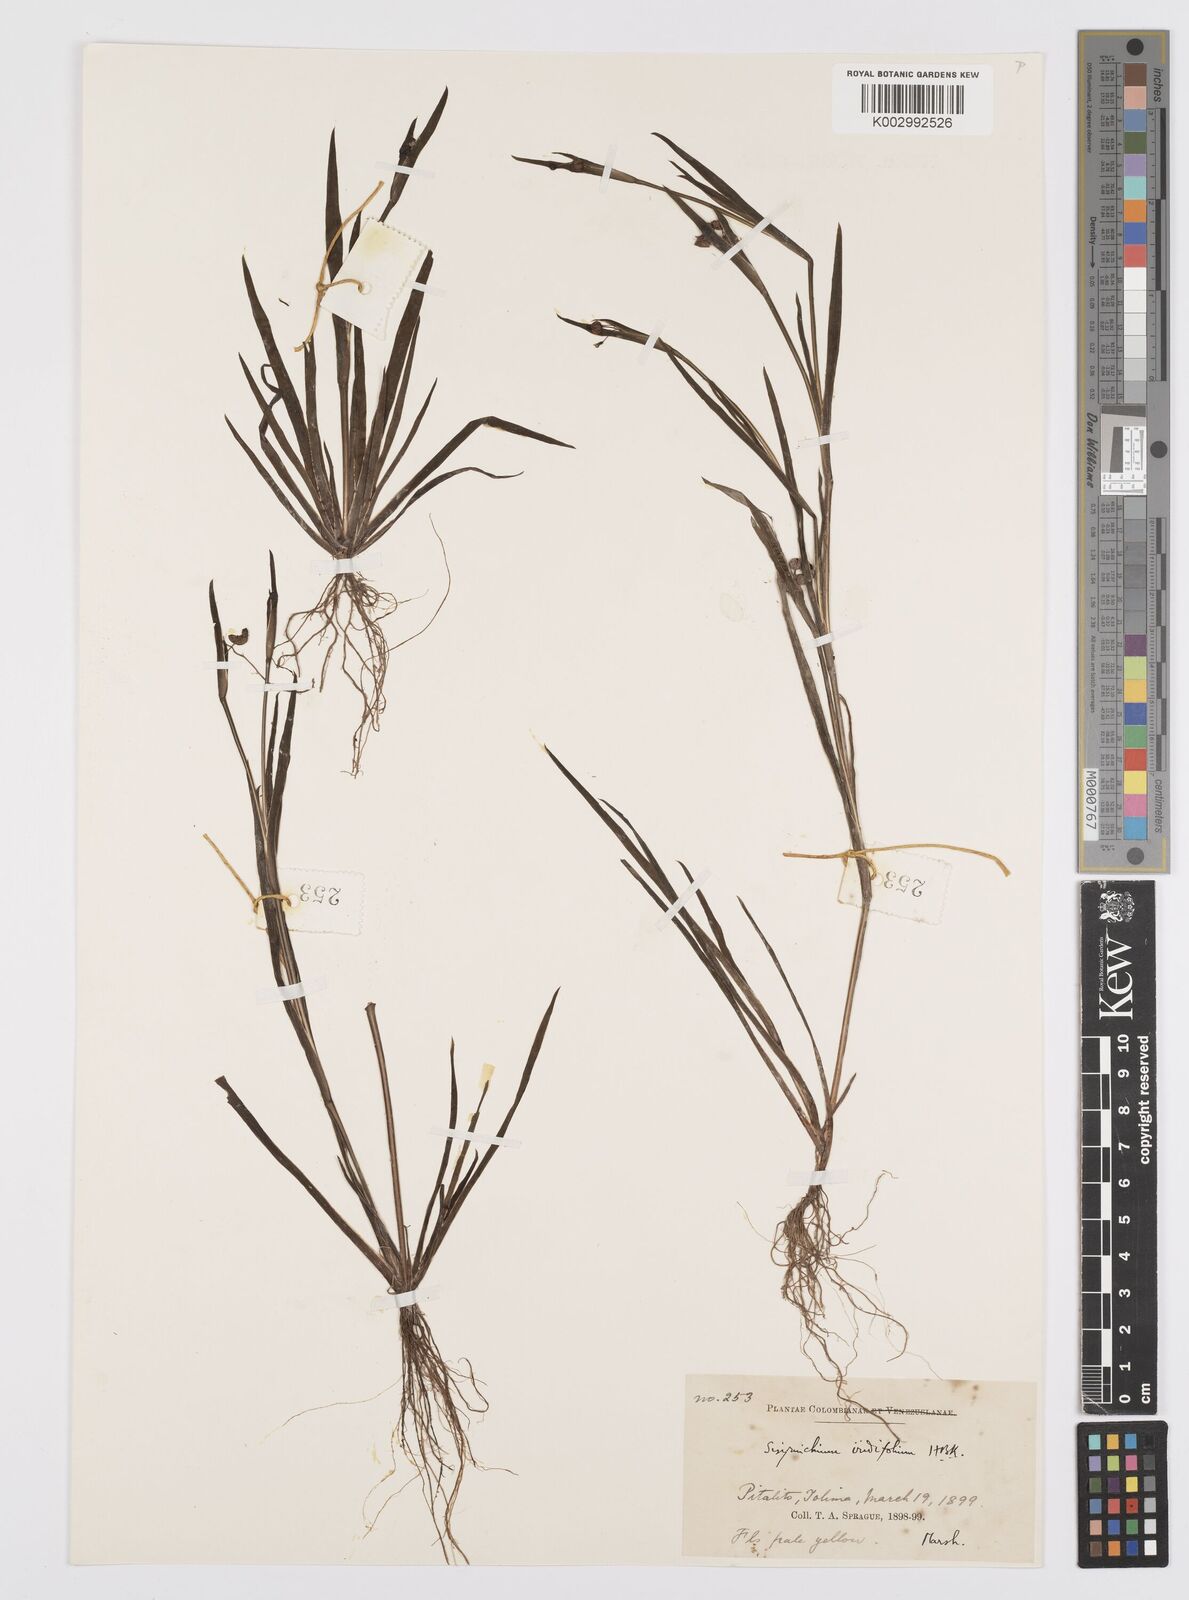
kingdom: Plantae
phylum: Tracheophyta
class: Liliopsida
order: Asparagales
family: Iridaceae
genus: Sisyrinchium
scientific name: Sisyrinchium micranthum
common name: Bermuda pigroot
